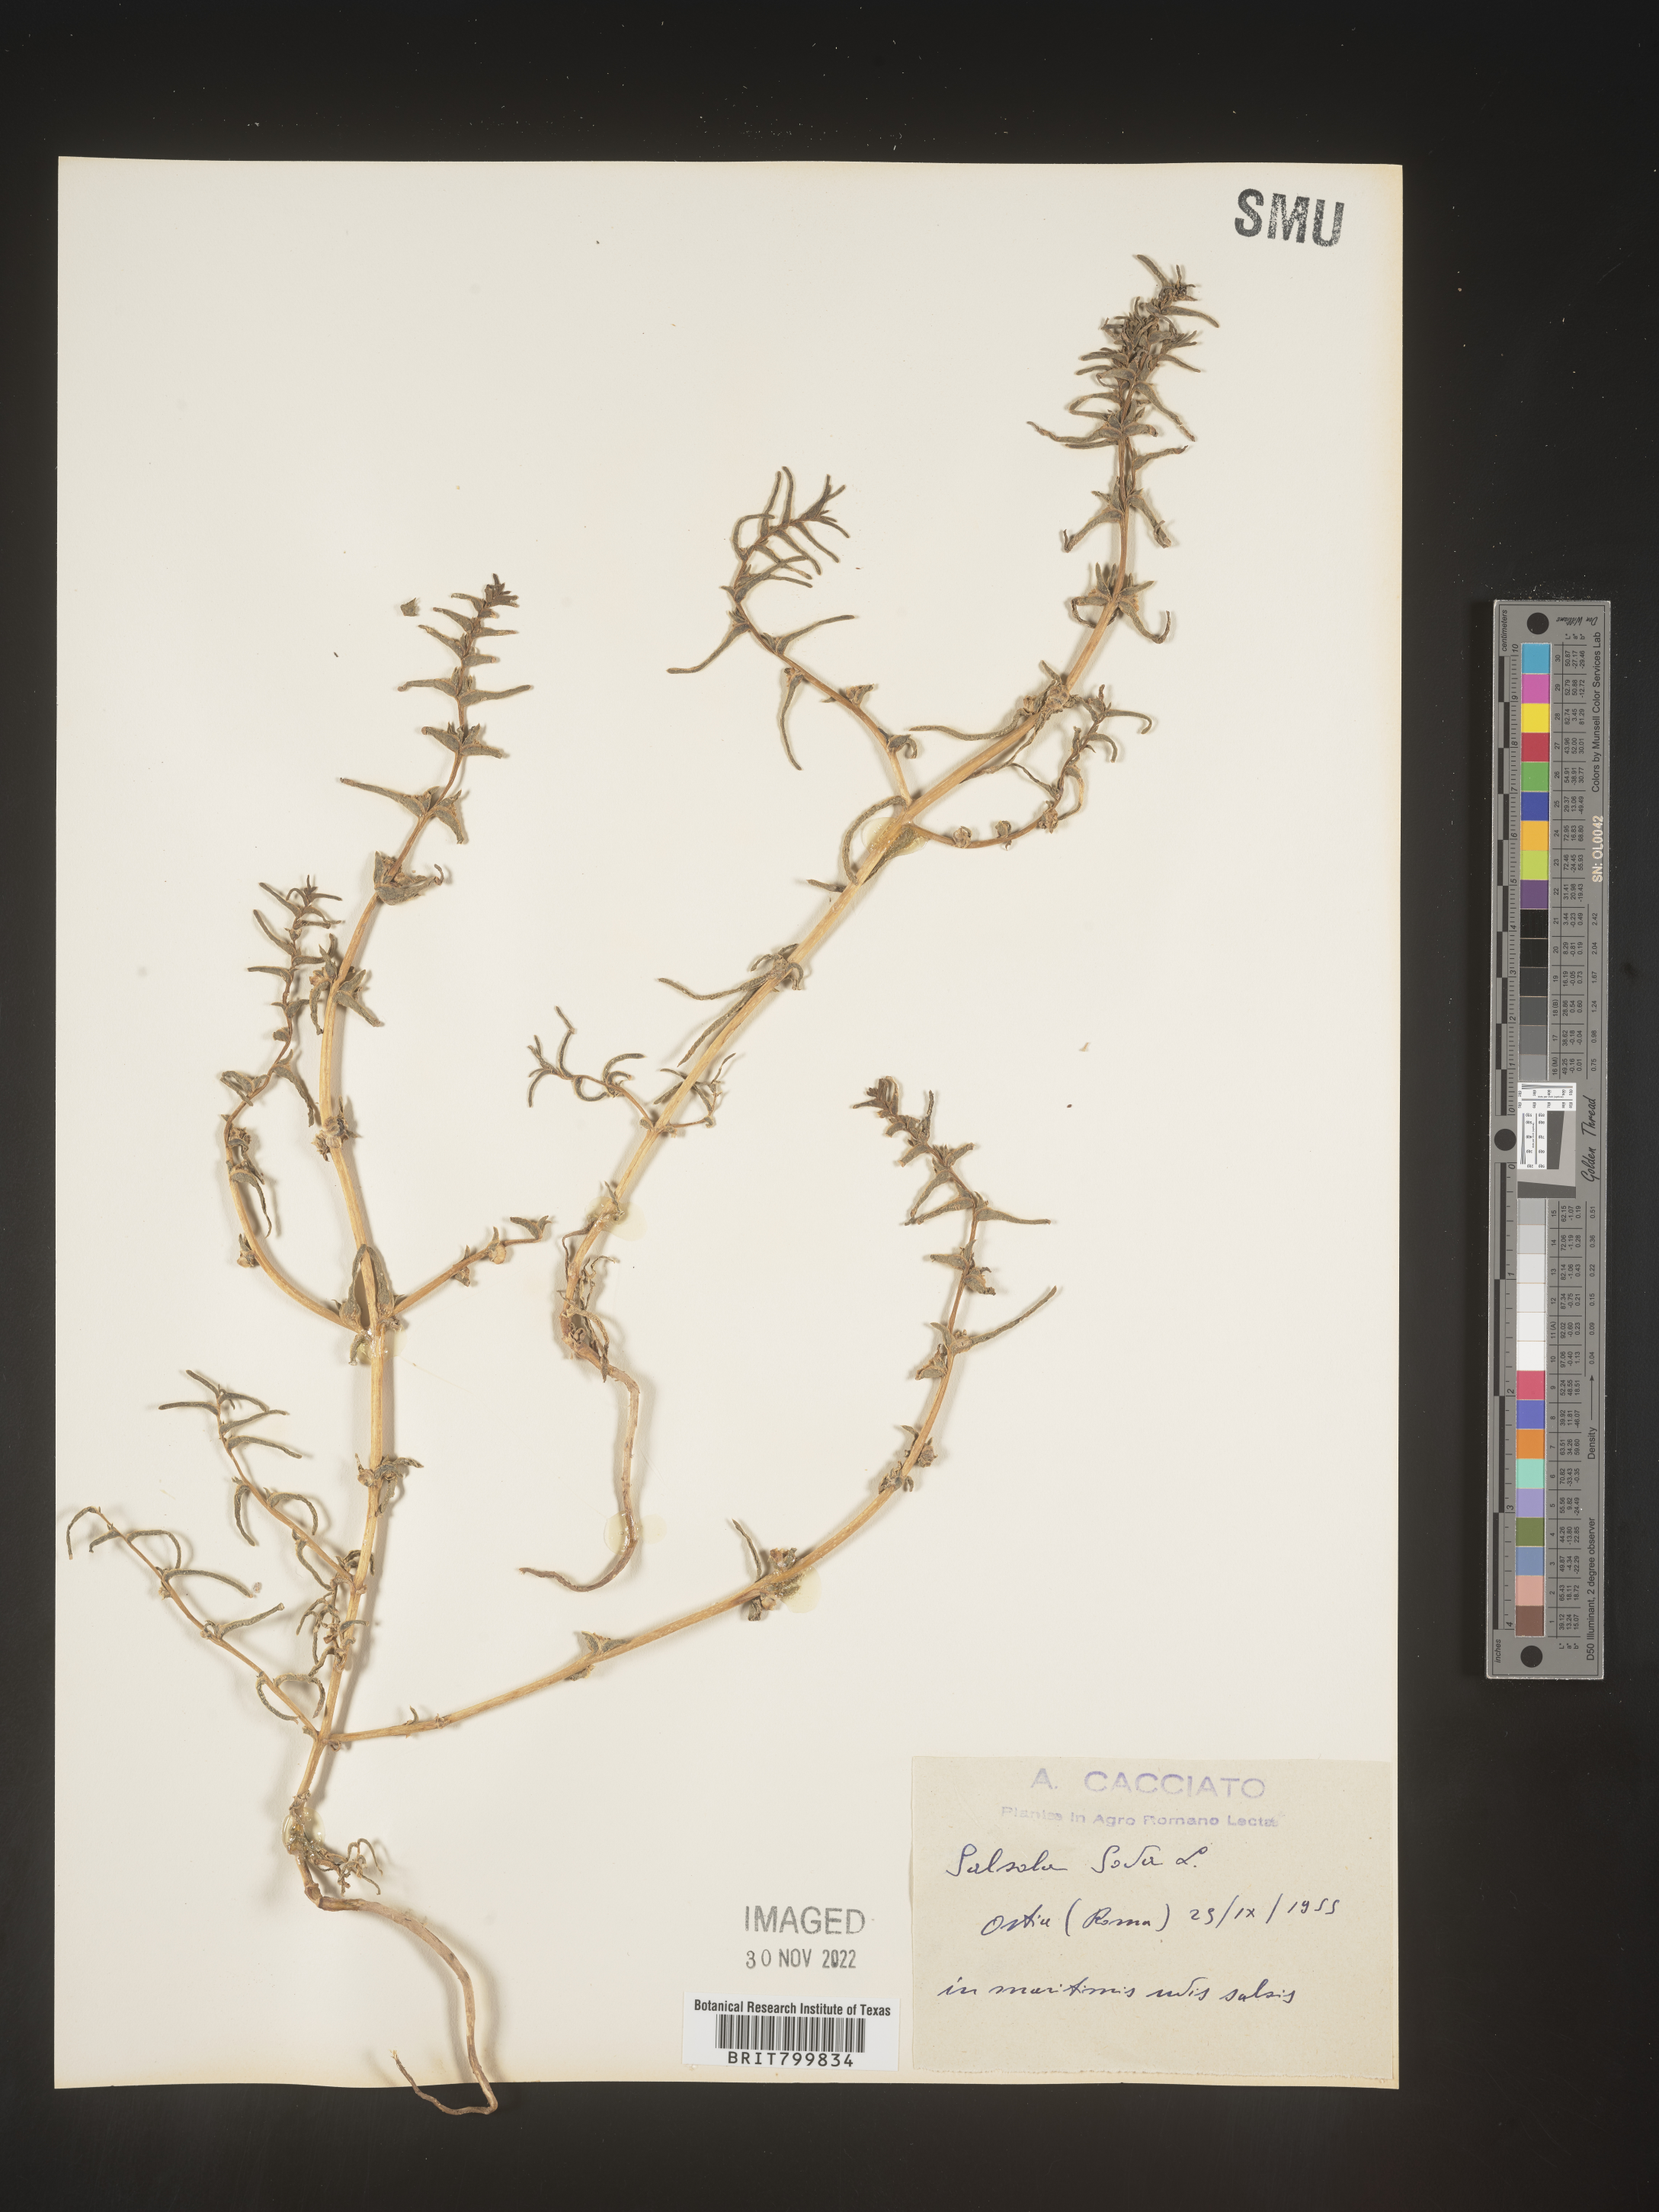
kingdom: Plantae
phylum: Tracheophyta
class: Magnoliopsida
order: Caryophyllales
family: Amaranthaceae
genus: Salsola
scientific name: Salsola
